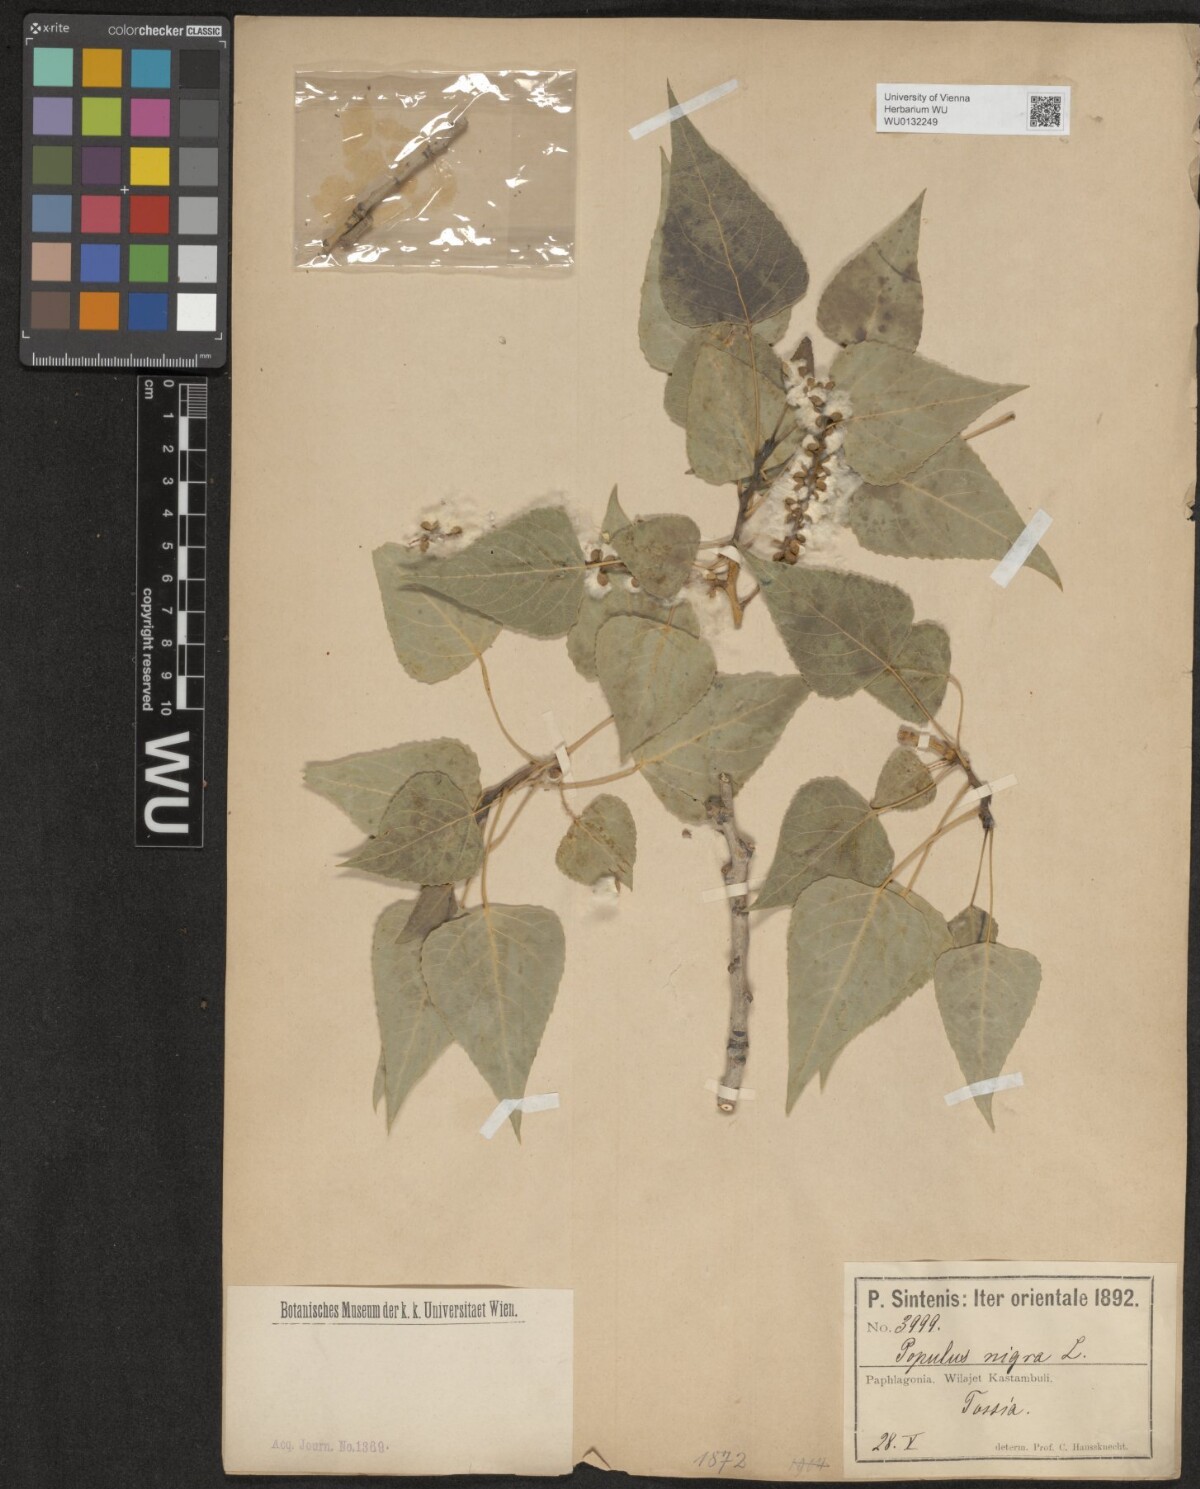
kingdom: Plantae
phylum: Tracheophyta
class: Magnoliopsida
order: Malpighiales
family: Salicaceae
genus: Populus
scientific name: Populus nigra
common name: Black poplar
